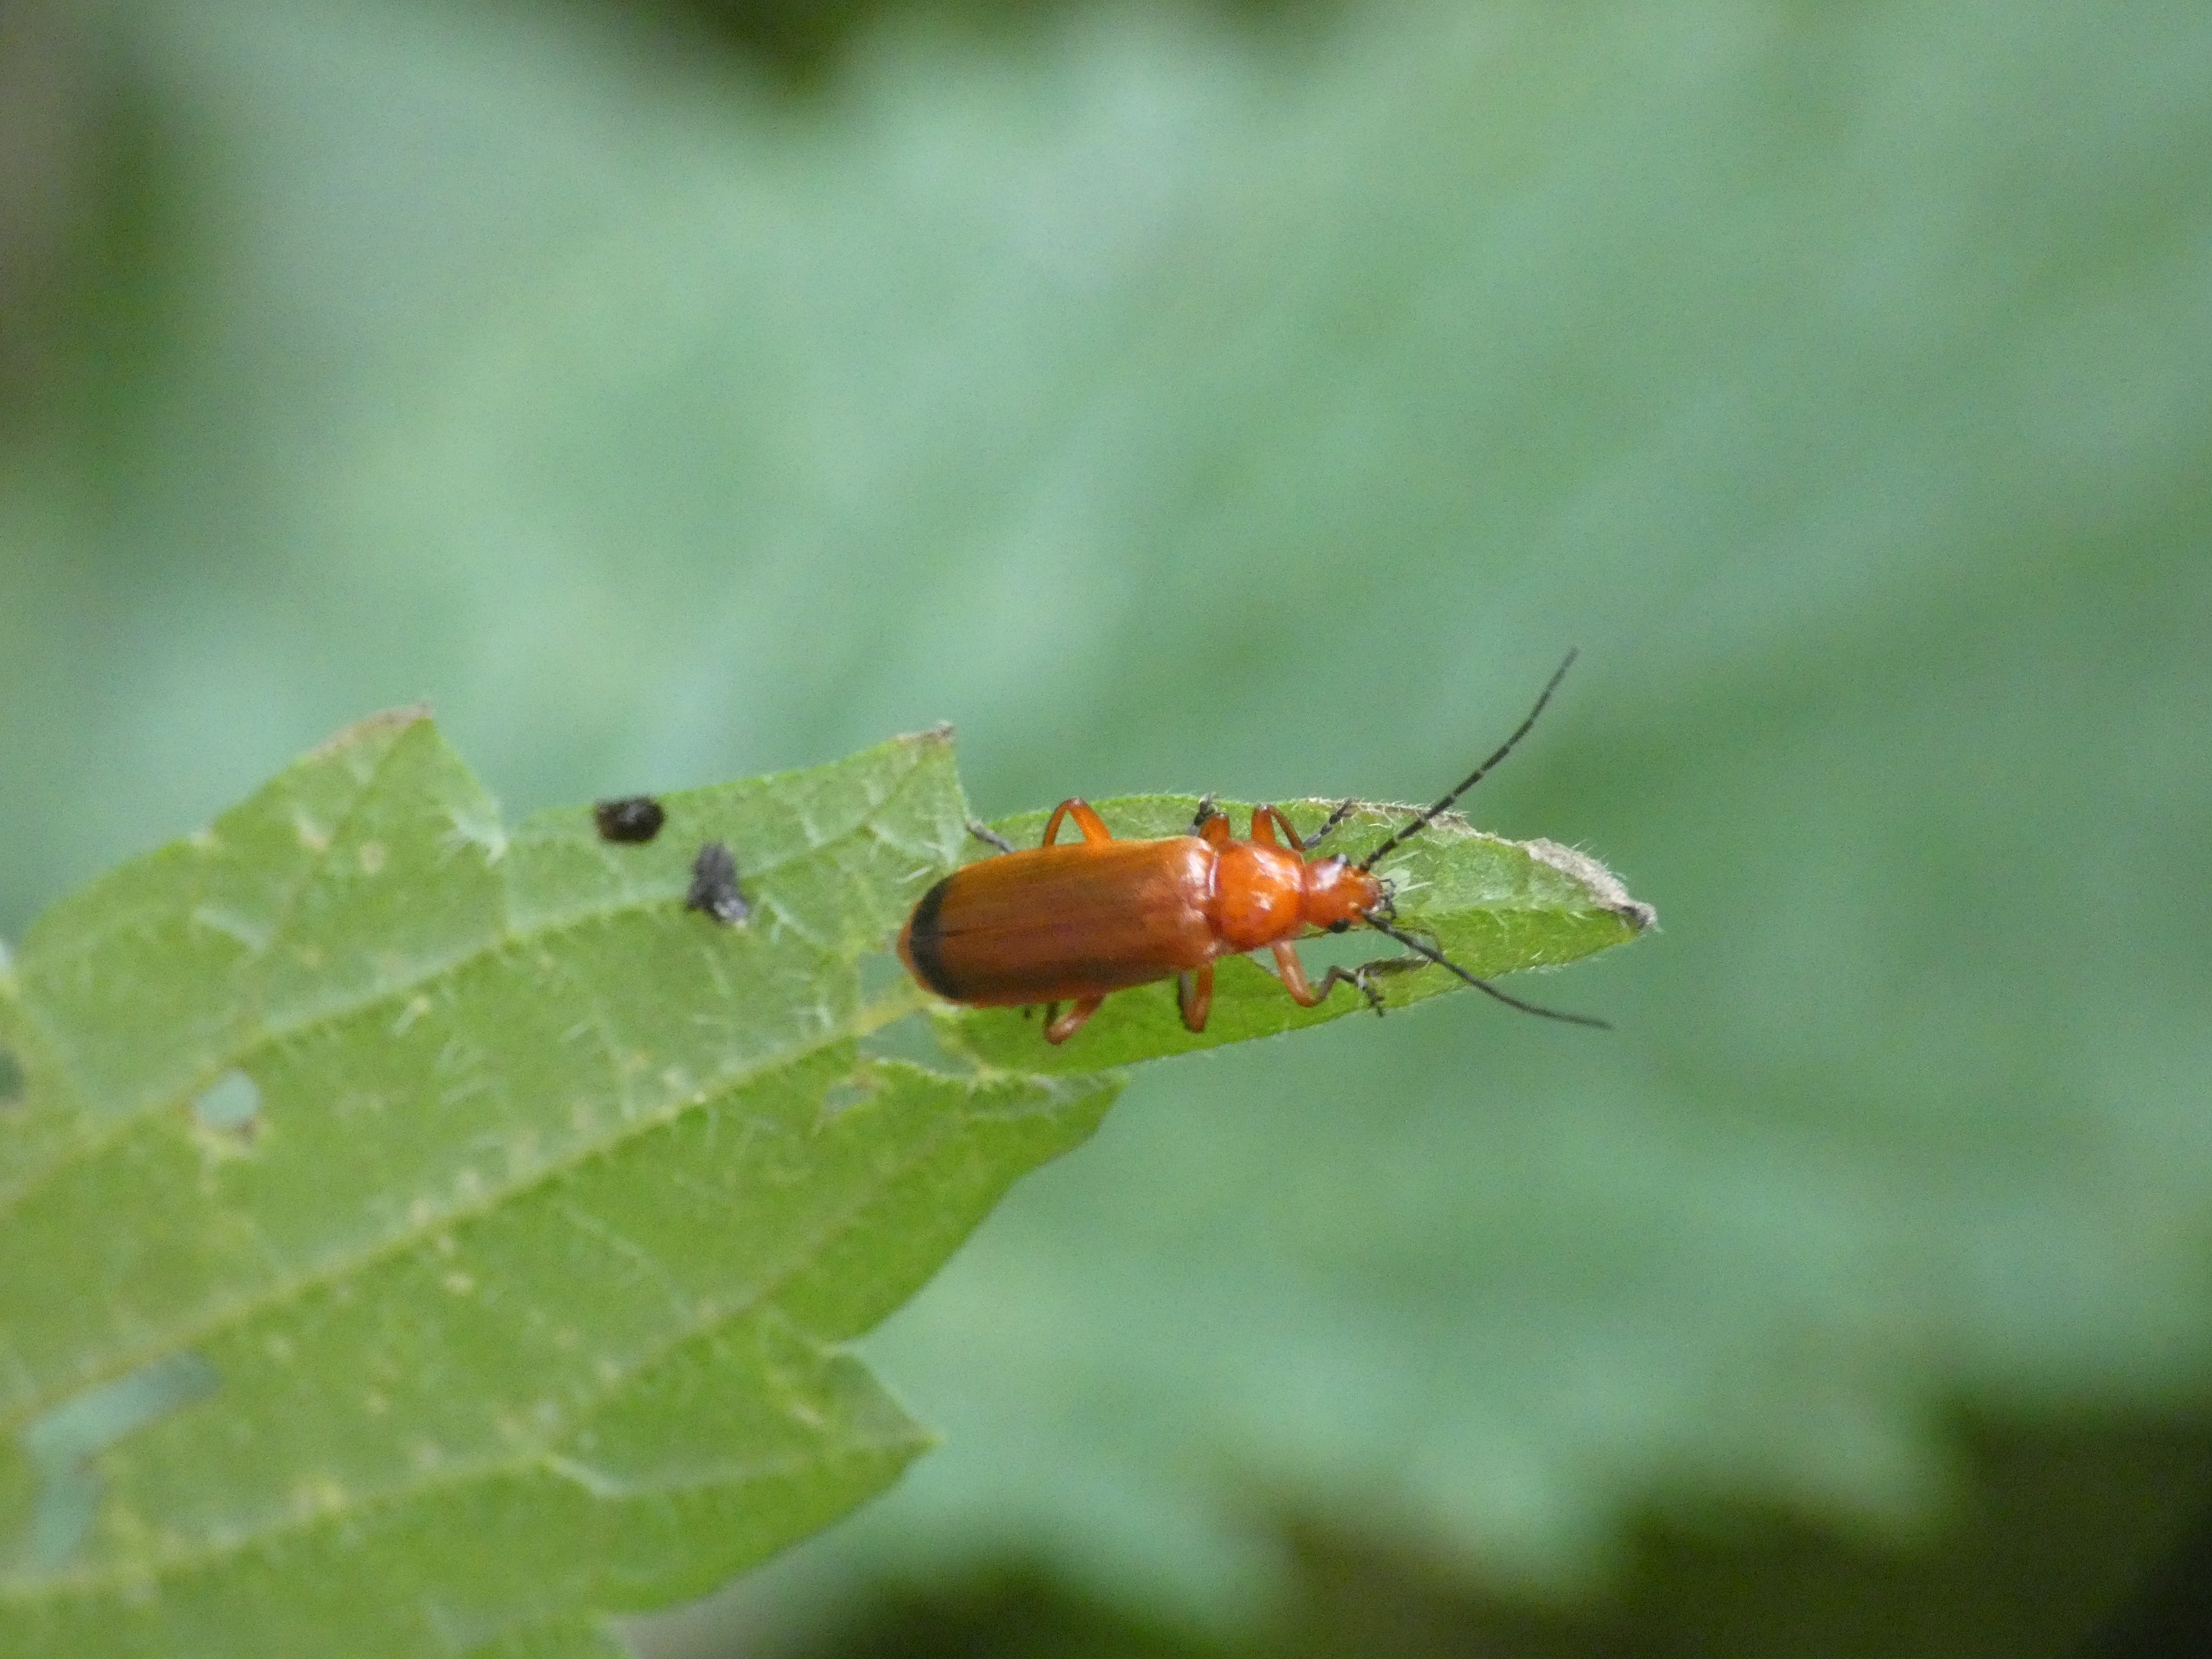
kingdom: Animalia
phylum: Arthropoda
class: Insecta
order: Coleoptera
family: Cantharidae
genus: Rhagonycha
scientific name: Rhagonycha fulva
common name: Præstebille
